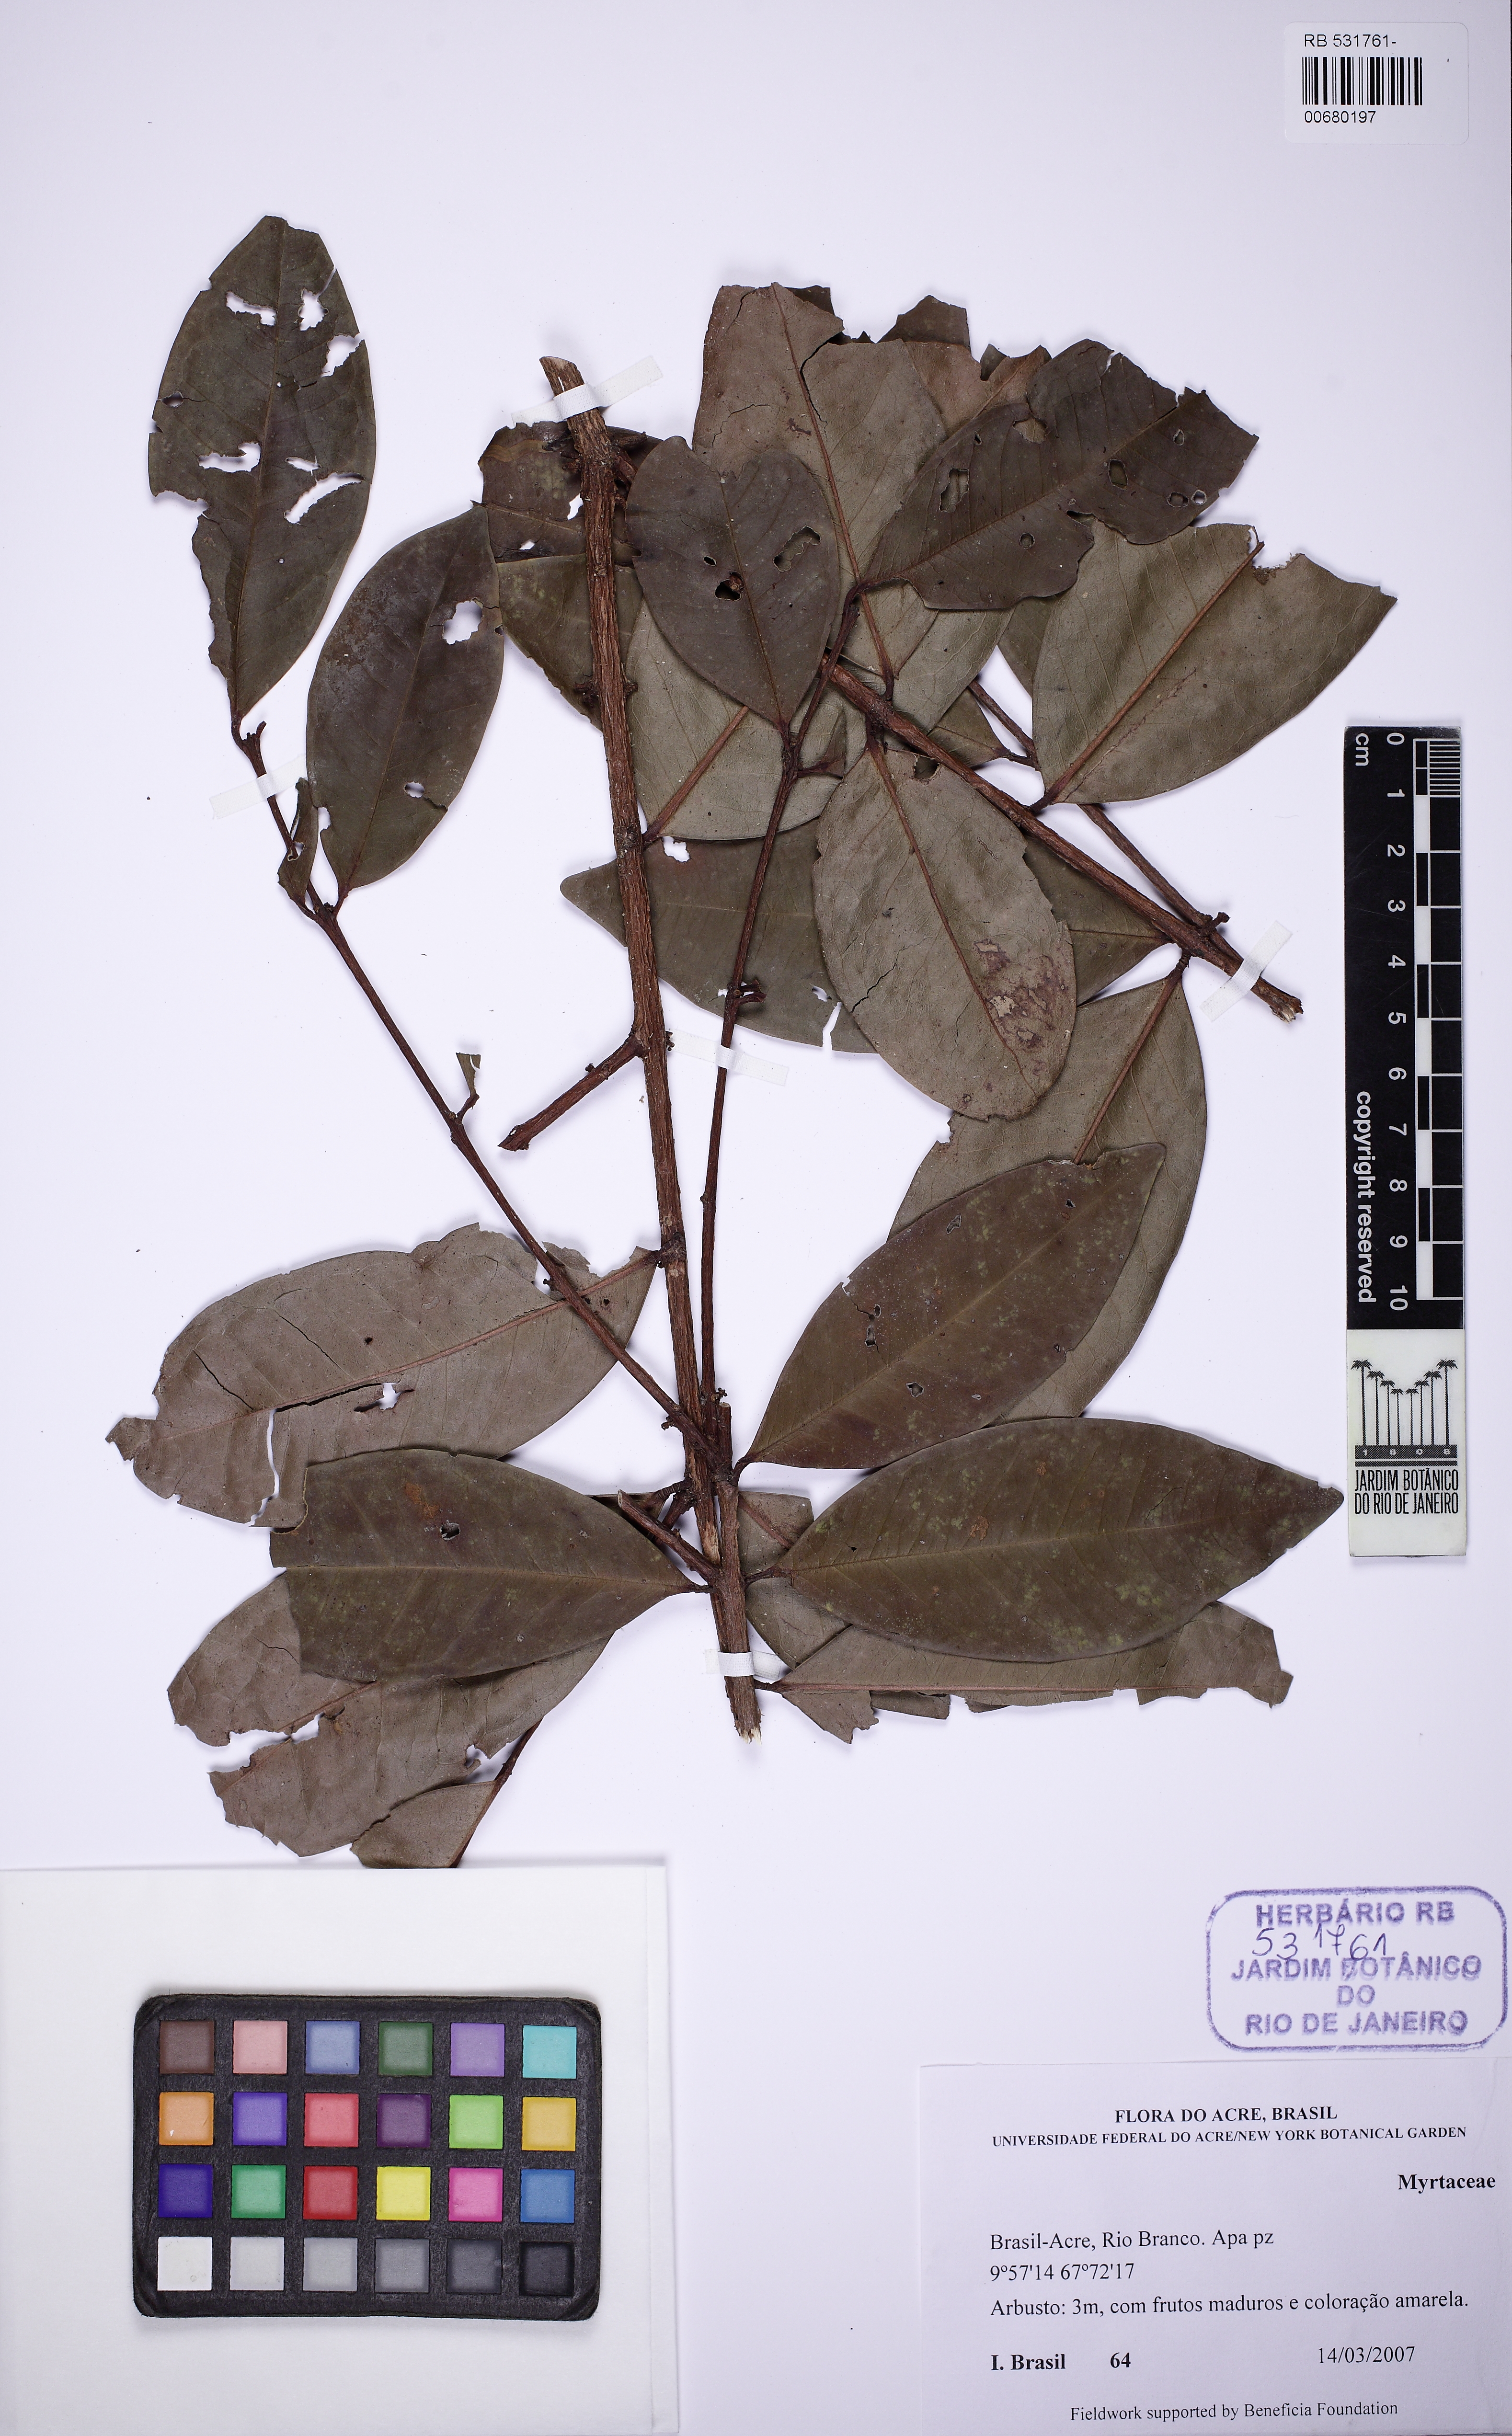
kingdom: Plantae
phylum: Tracheophyta
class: Magnoliopsida
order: Myrtales
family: Myrtaceae
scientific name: Myrtaceae
